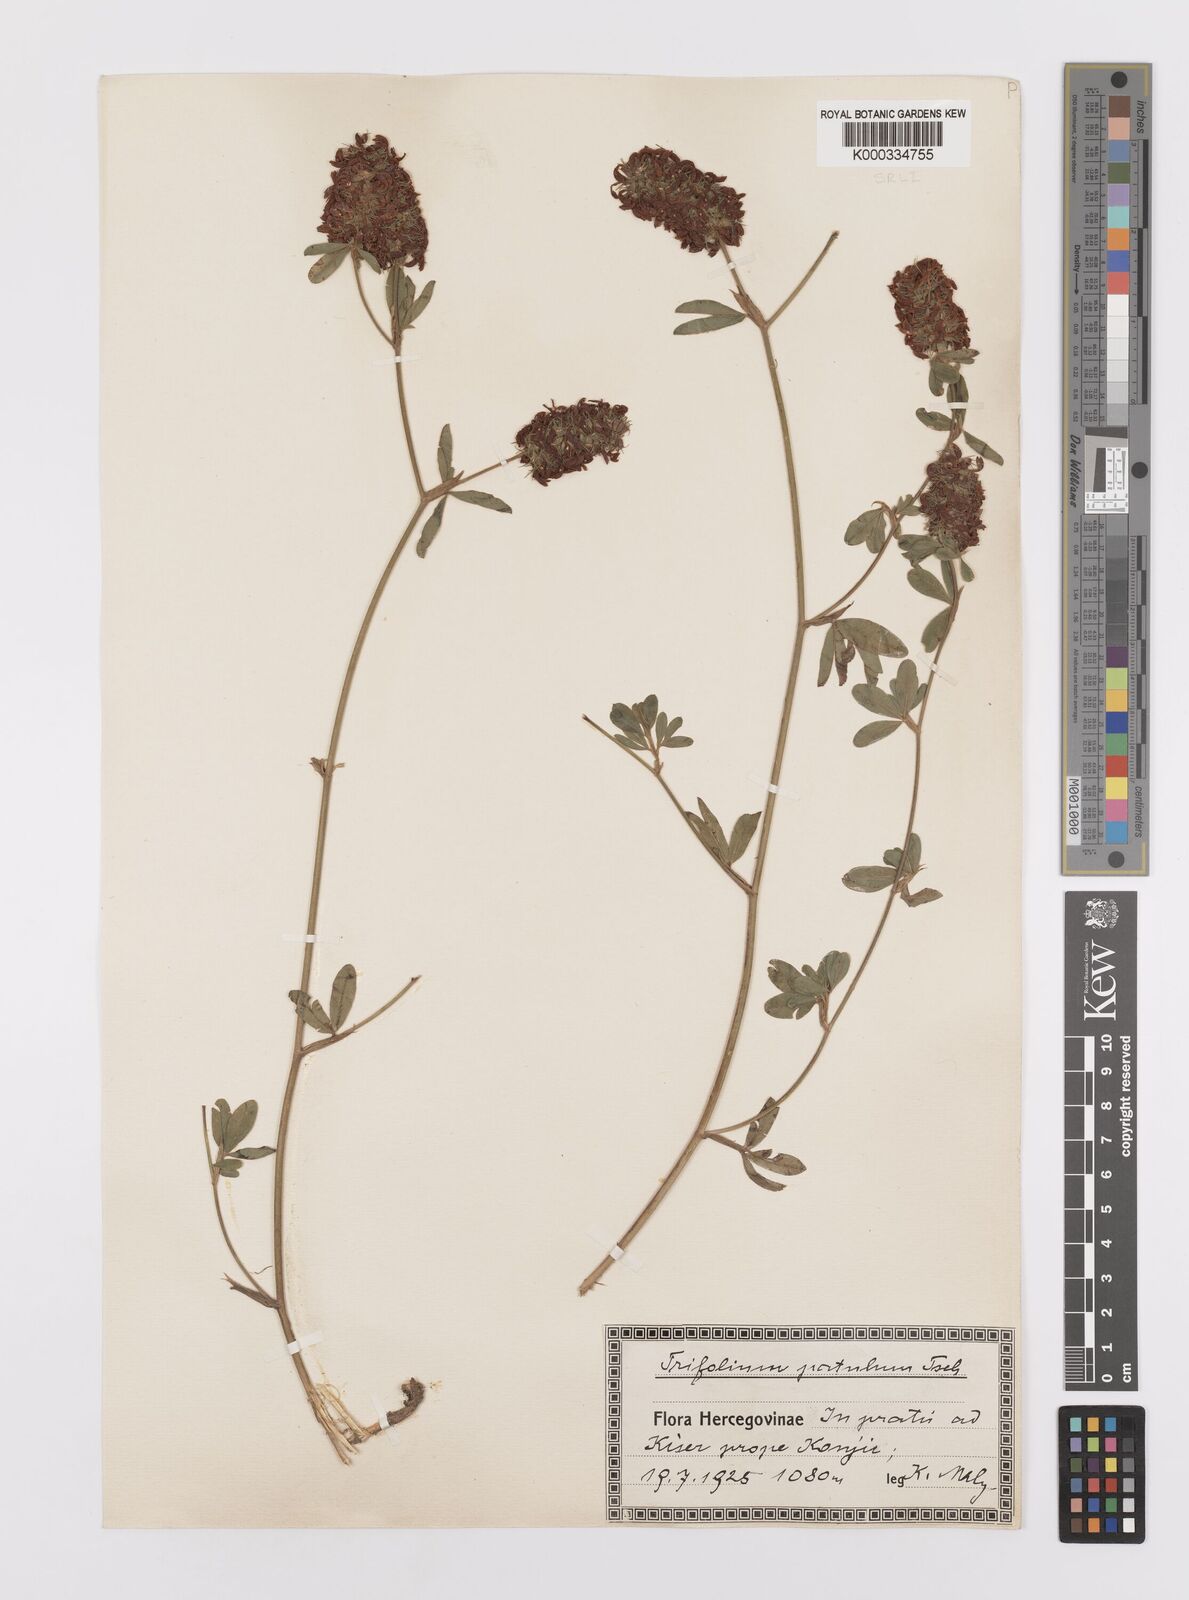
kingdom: Plantae
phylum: Tracheophyta
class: Magnoliopsida
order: Fabales
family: Fabaceae
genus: Trifolium
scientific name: Trifolium patulum
